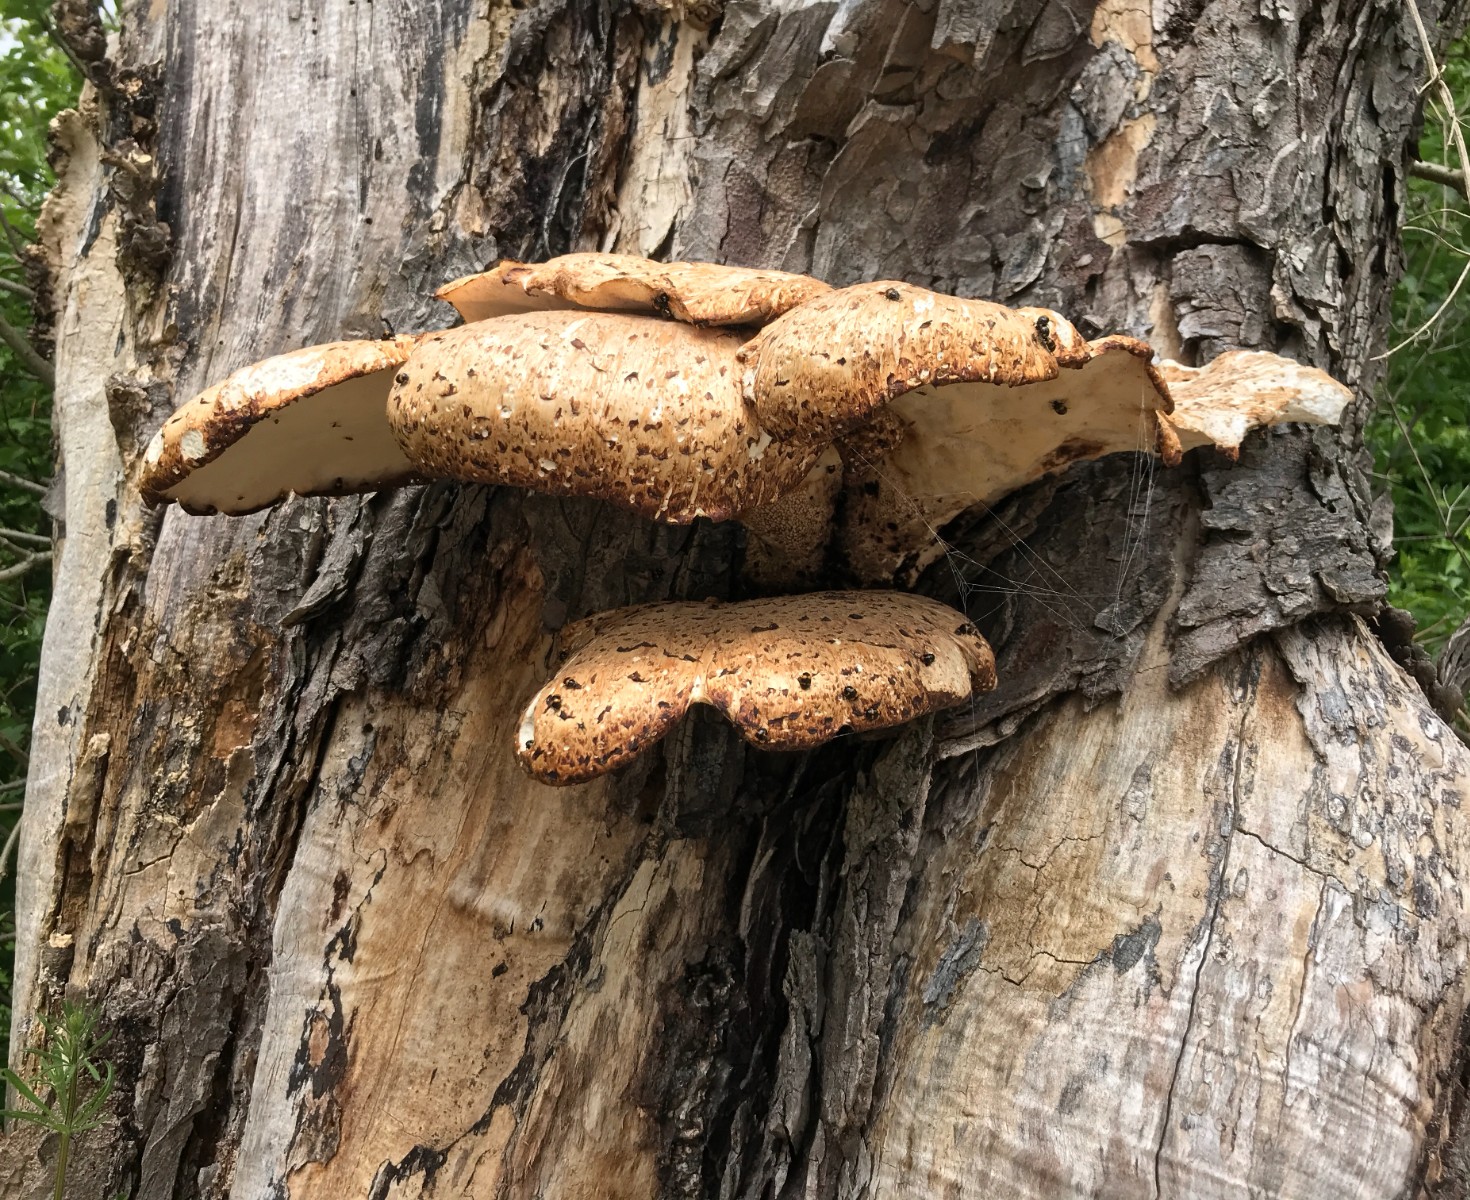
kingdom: Fungi
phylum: Basidiomycota
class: Agaricomycetes
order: Polyporales
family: Polyporaceae
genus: Cerioporus
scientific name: Cerioporus squamosus
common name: skællet stilkporesvamp
